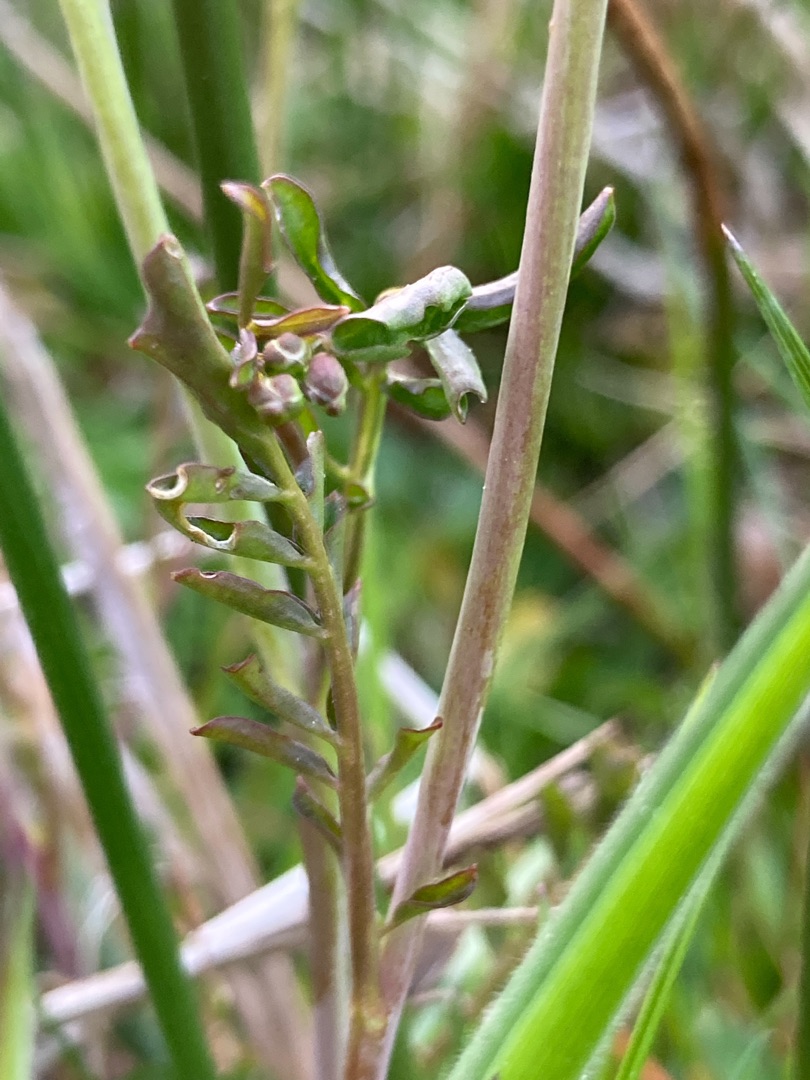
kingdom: Plantae
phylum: Tracheophyta
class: Magnoliopsida
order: Brassicales
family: Brassicaceae
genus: Cardamine
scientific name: Cardamine pratensis
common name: Engkarse
